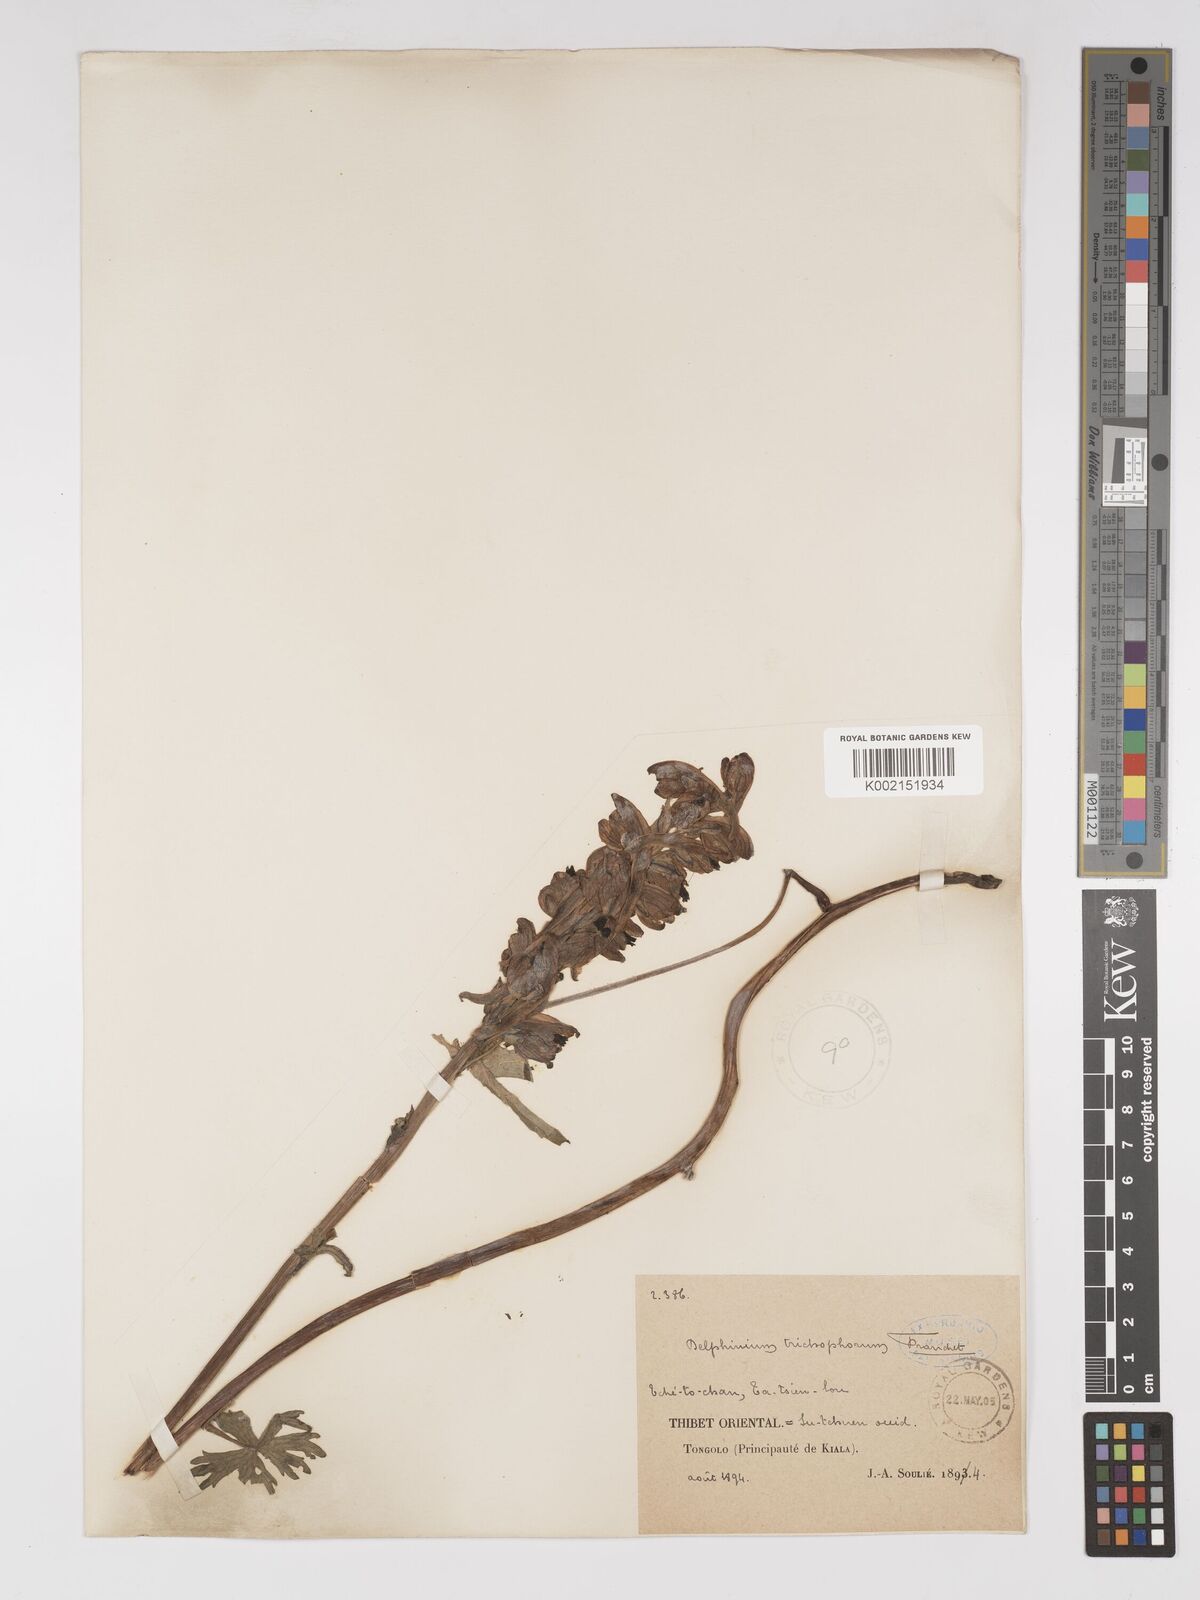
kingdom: Plantae
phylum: Tracheophyta
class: Magnoliopsida
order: Ranunculales
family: Ranunculaceae
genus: Delphinium
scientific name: Delphinium trichophorum
